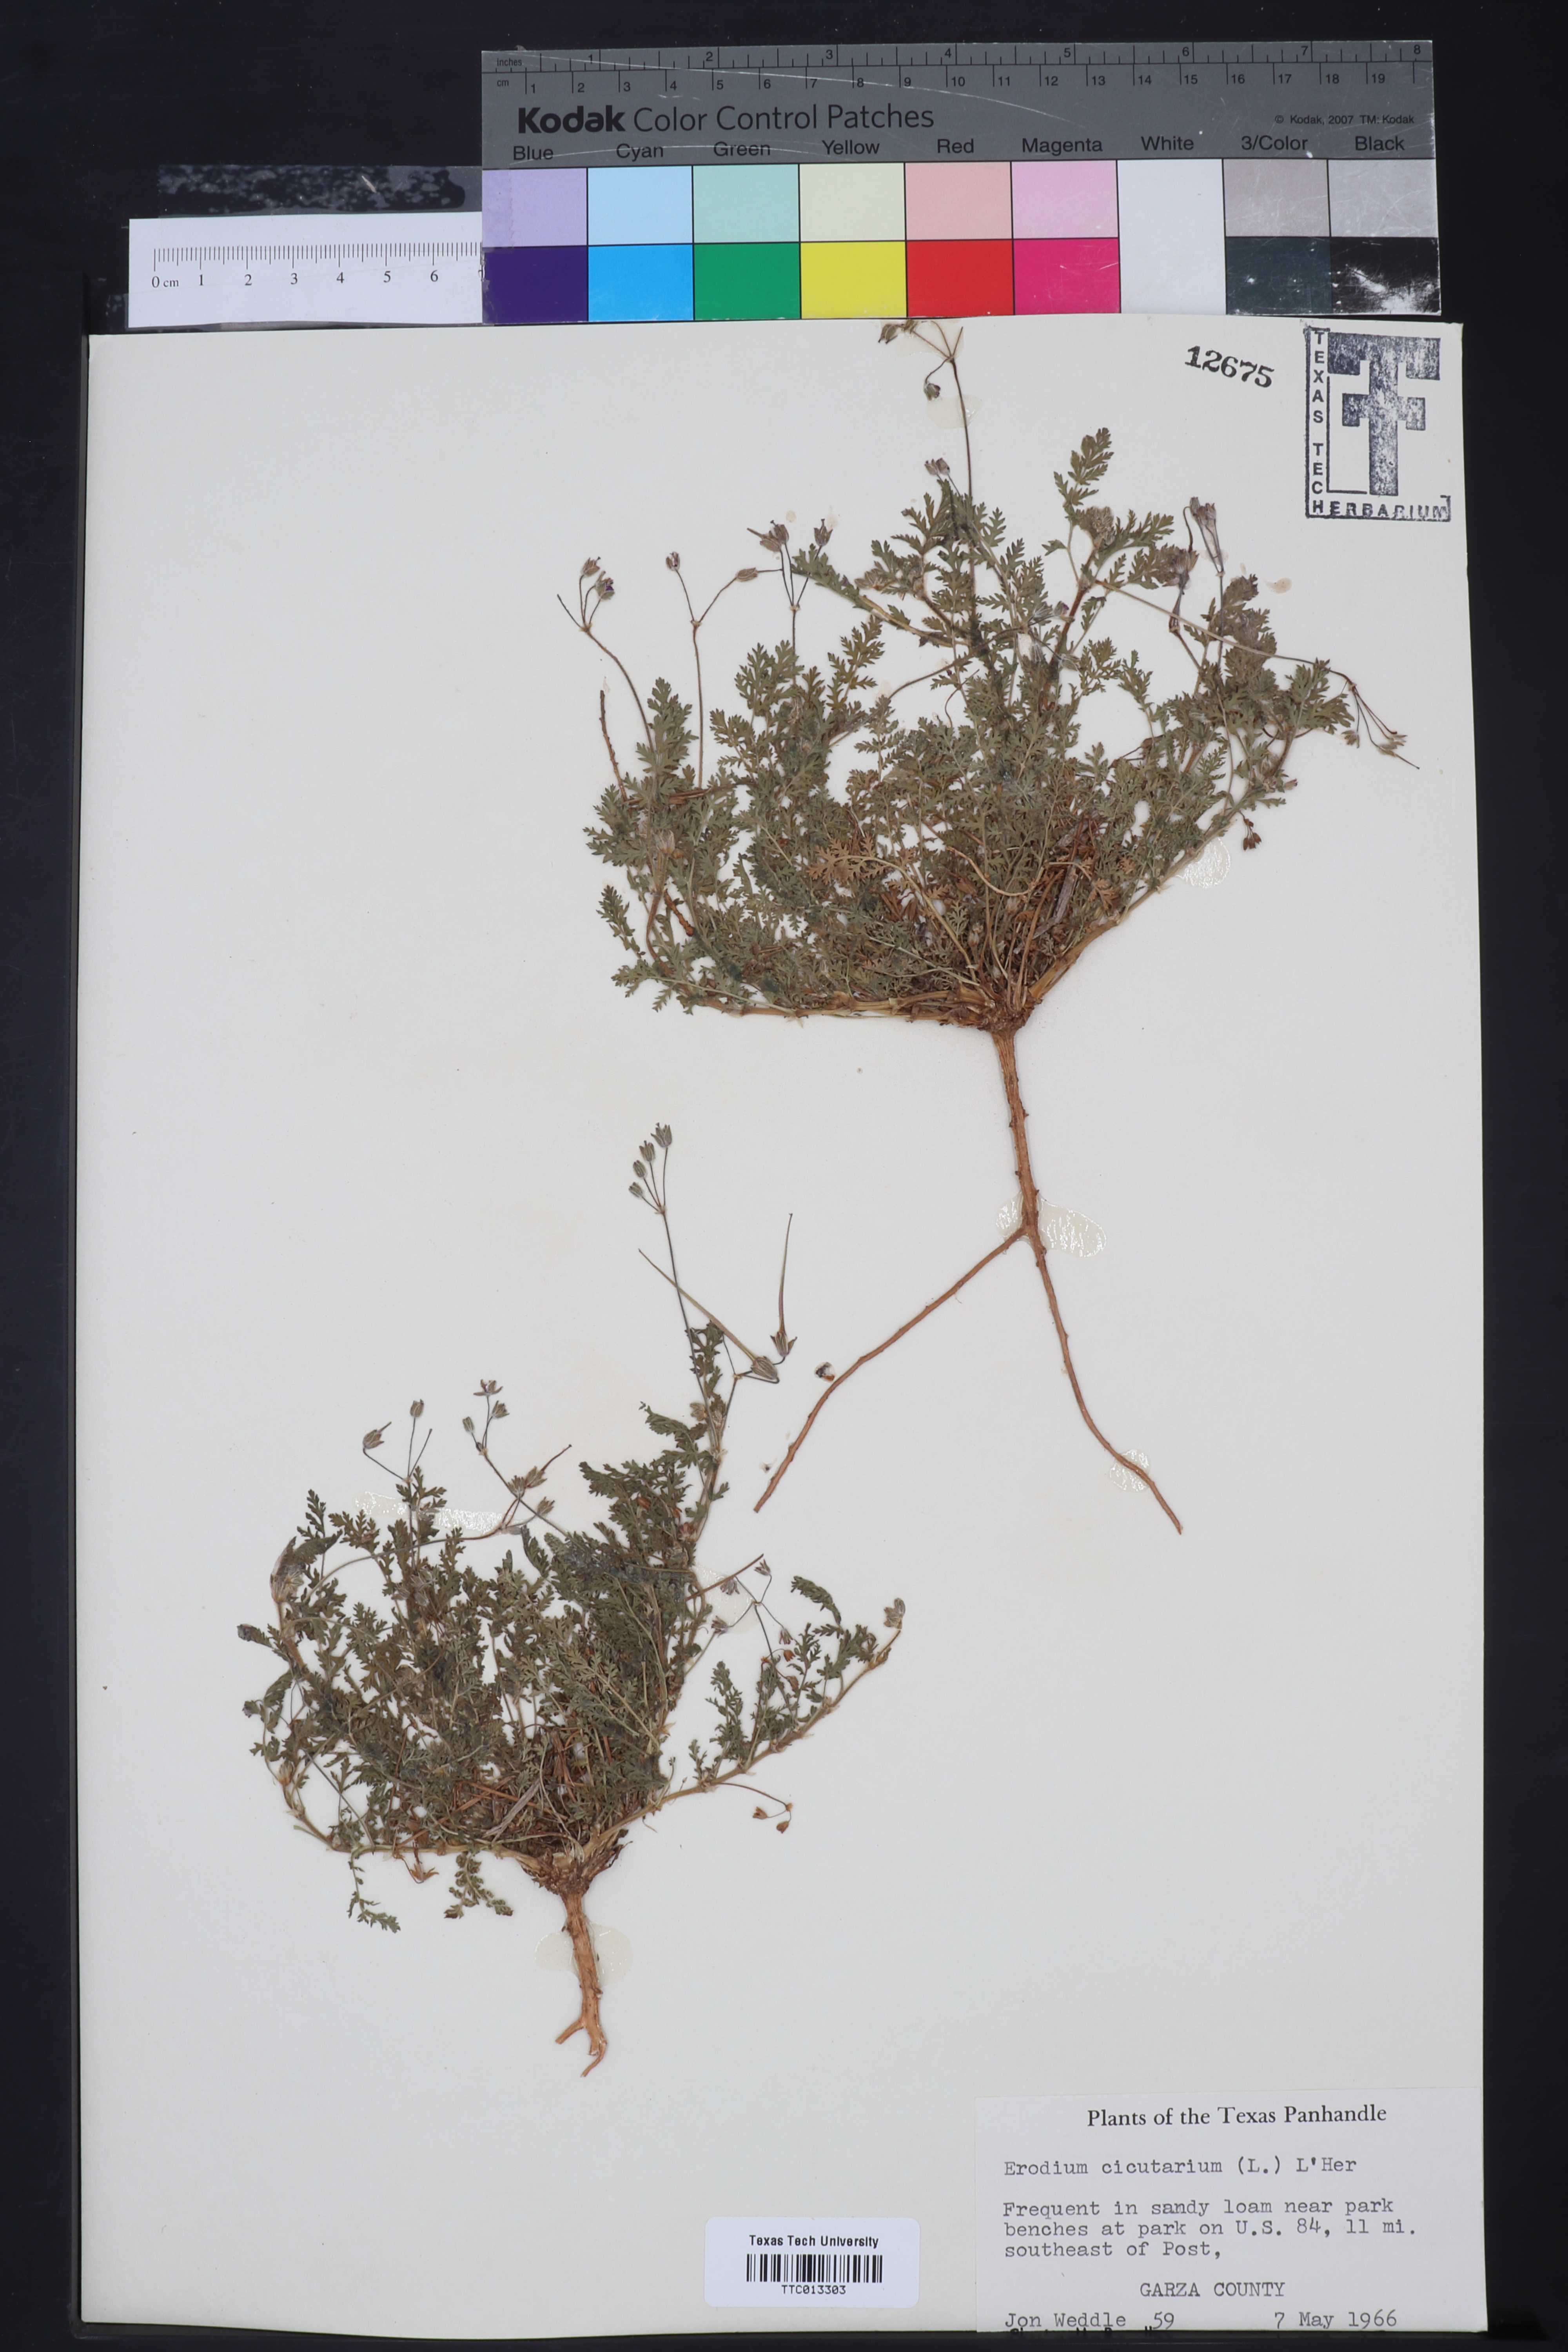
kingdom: Plantae
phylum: Tracheophyta
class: Magnoliopsida
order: Geraniales
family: Geraniaceae
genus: Erodium
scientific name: Erodium cicutarium
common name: Common stork's-bill
